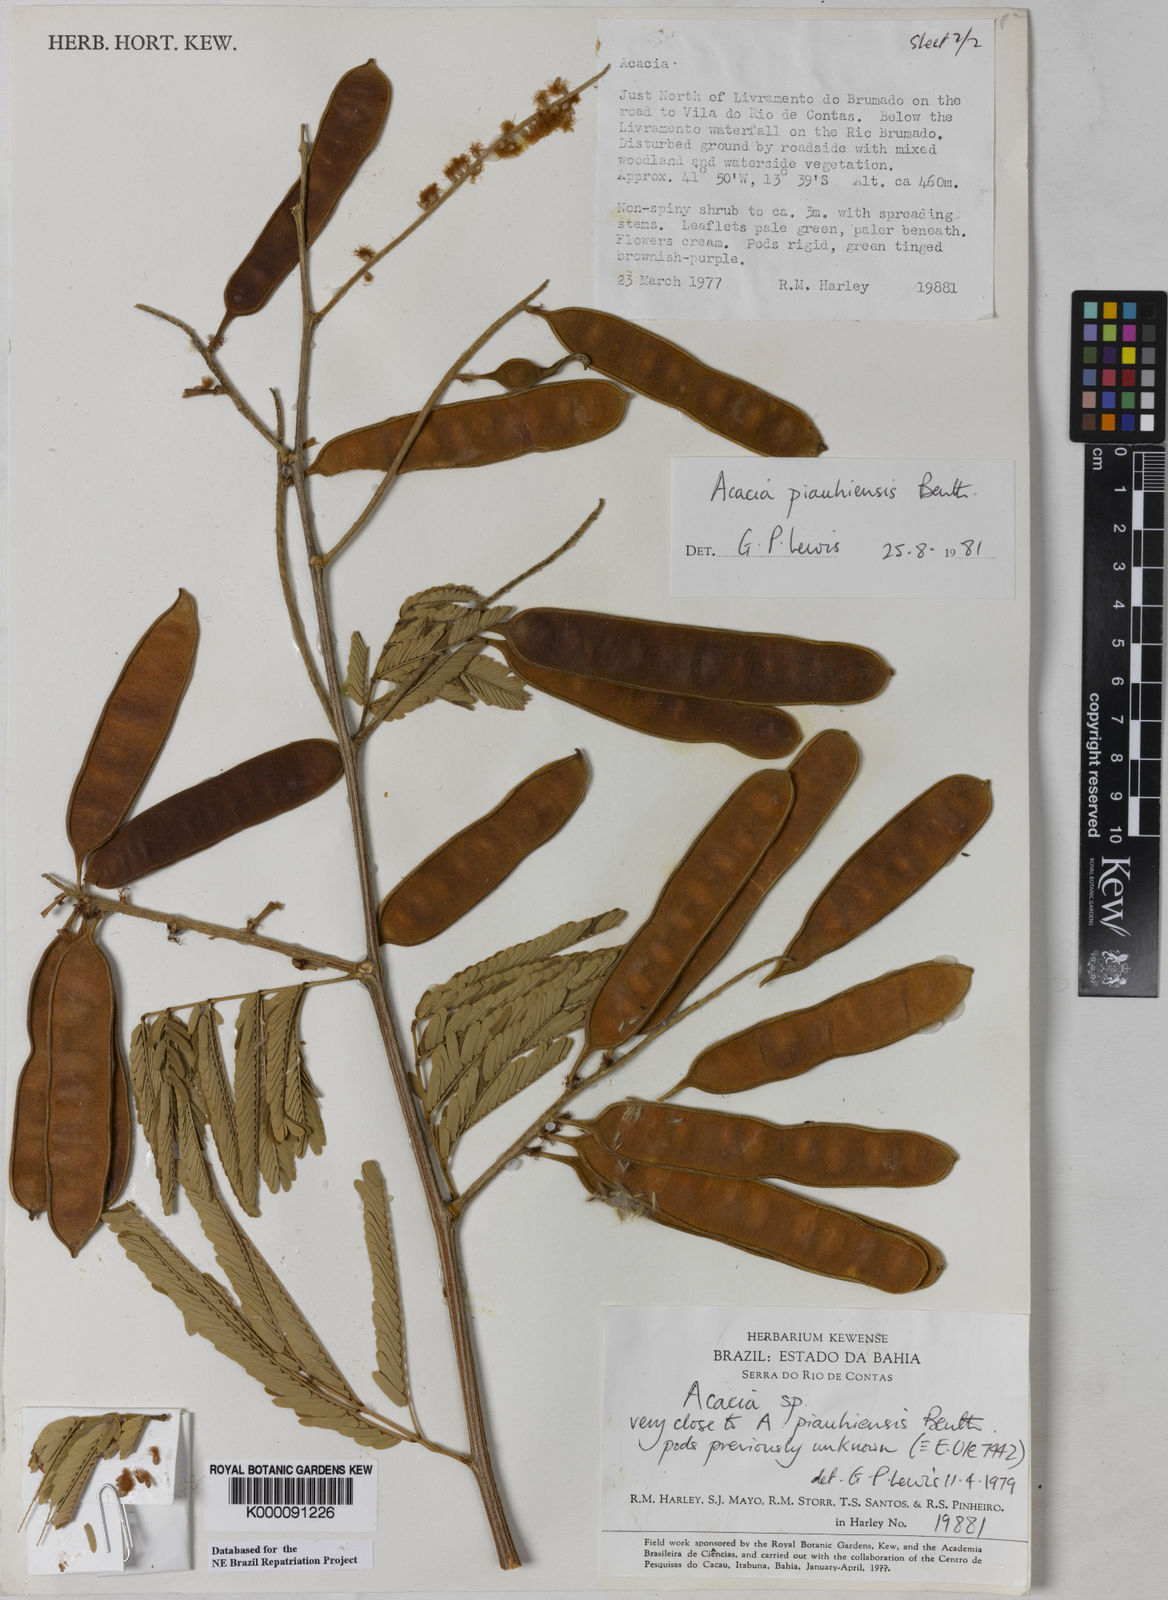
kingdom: Plantae
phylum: Tracheophyta
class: Magnoliopsida
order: Fabales
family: Fabaceae
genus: Senegalia
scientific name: Senegalia piauhiensis
